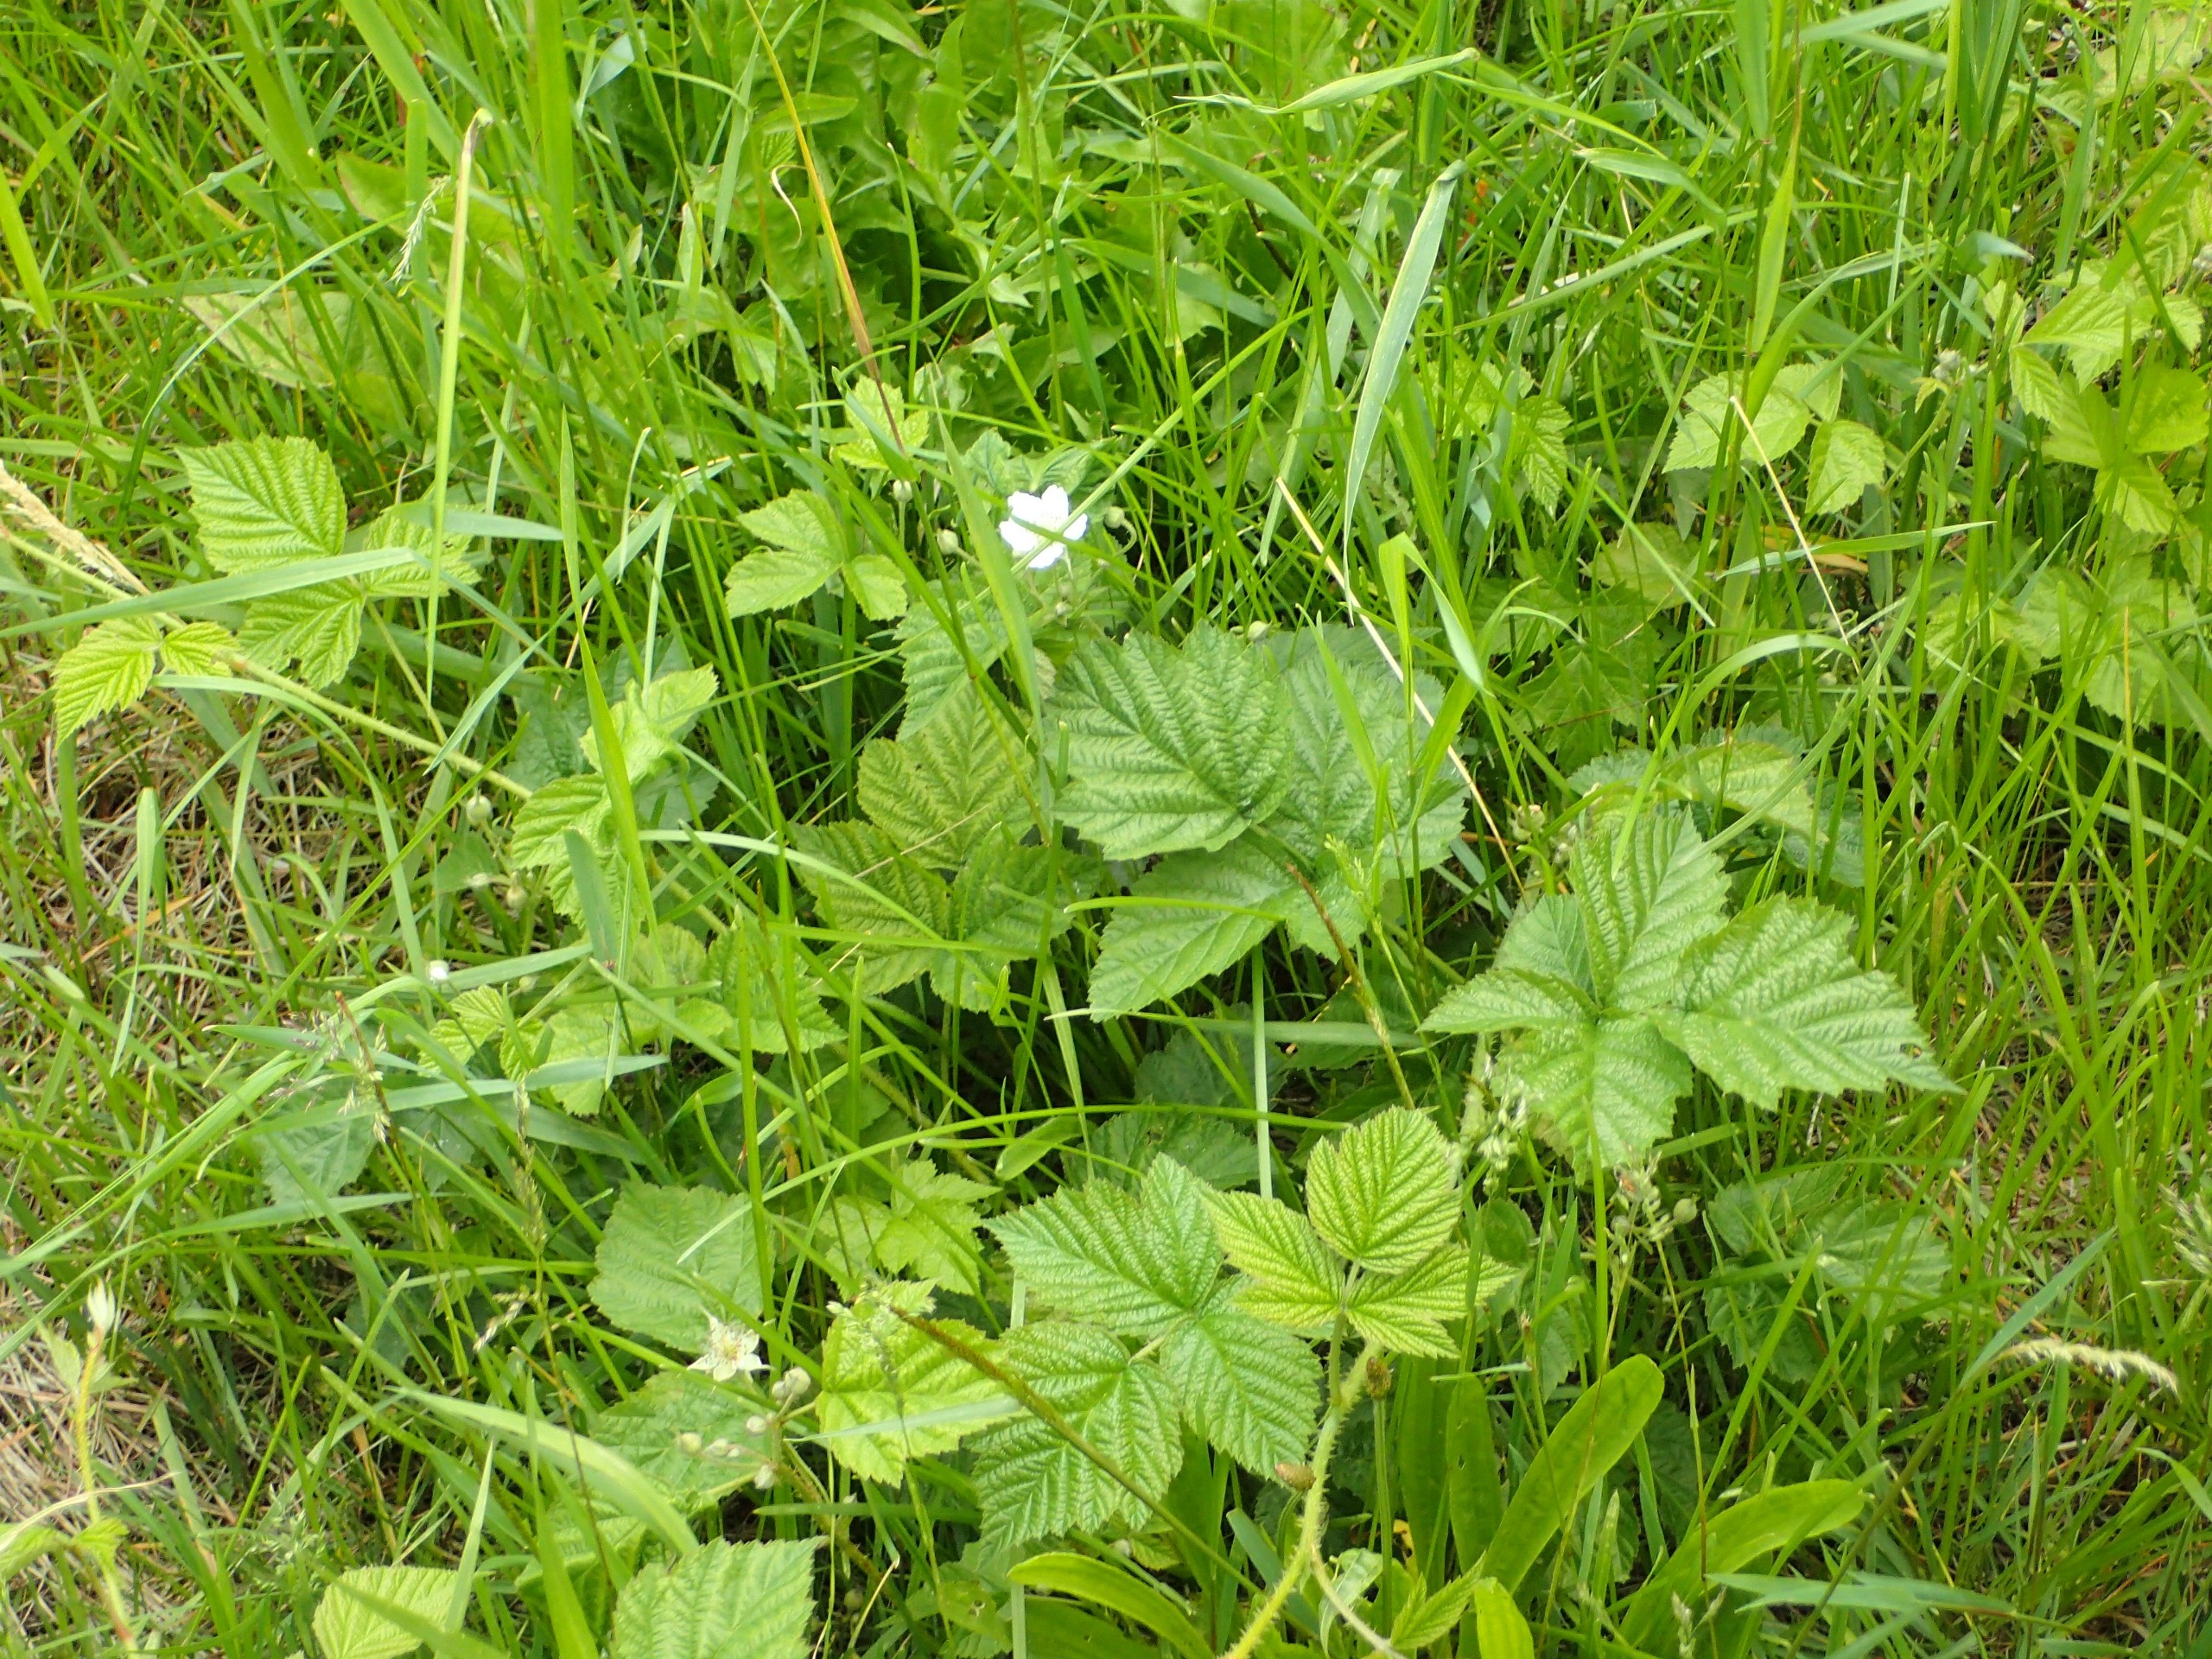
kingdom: Plantae
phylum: Tracheophyta
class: Magnoliopsida
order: Rosales
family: Rosaceae
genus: Rubus
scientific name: Rubus caesius
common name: Korbær
